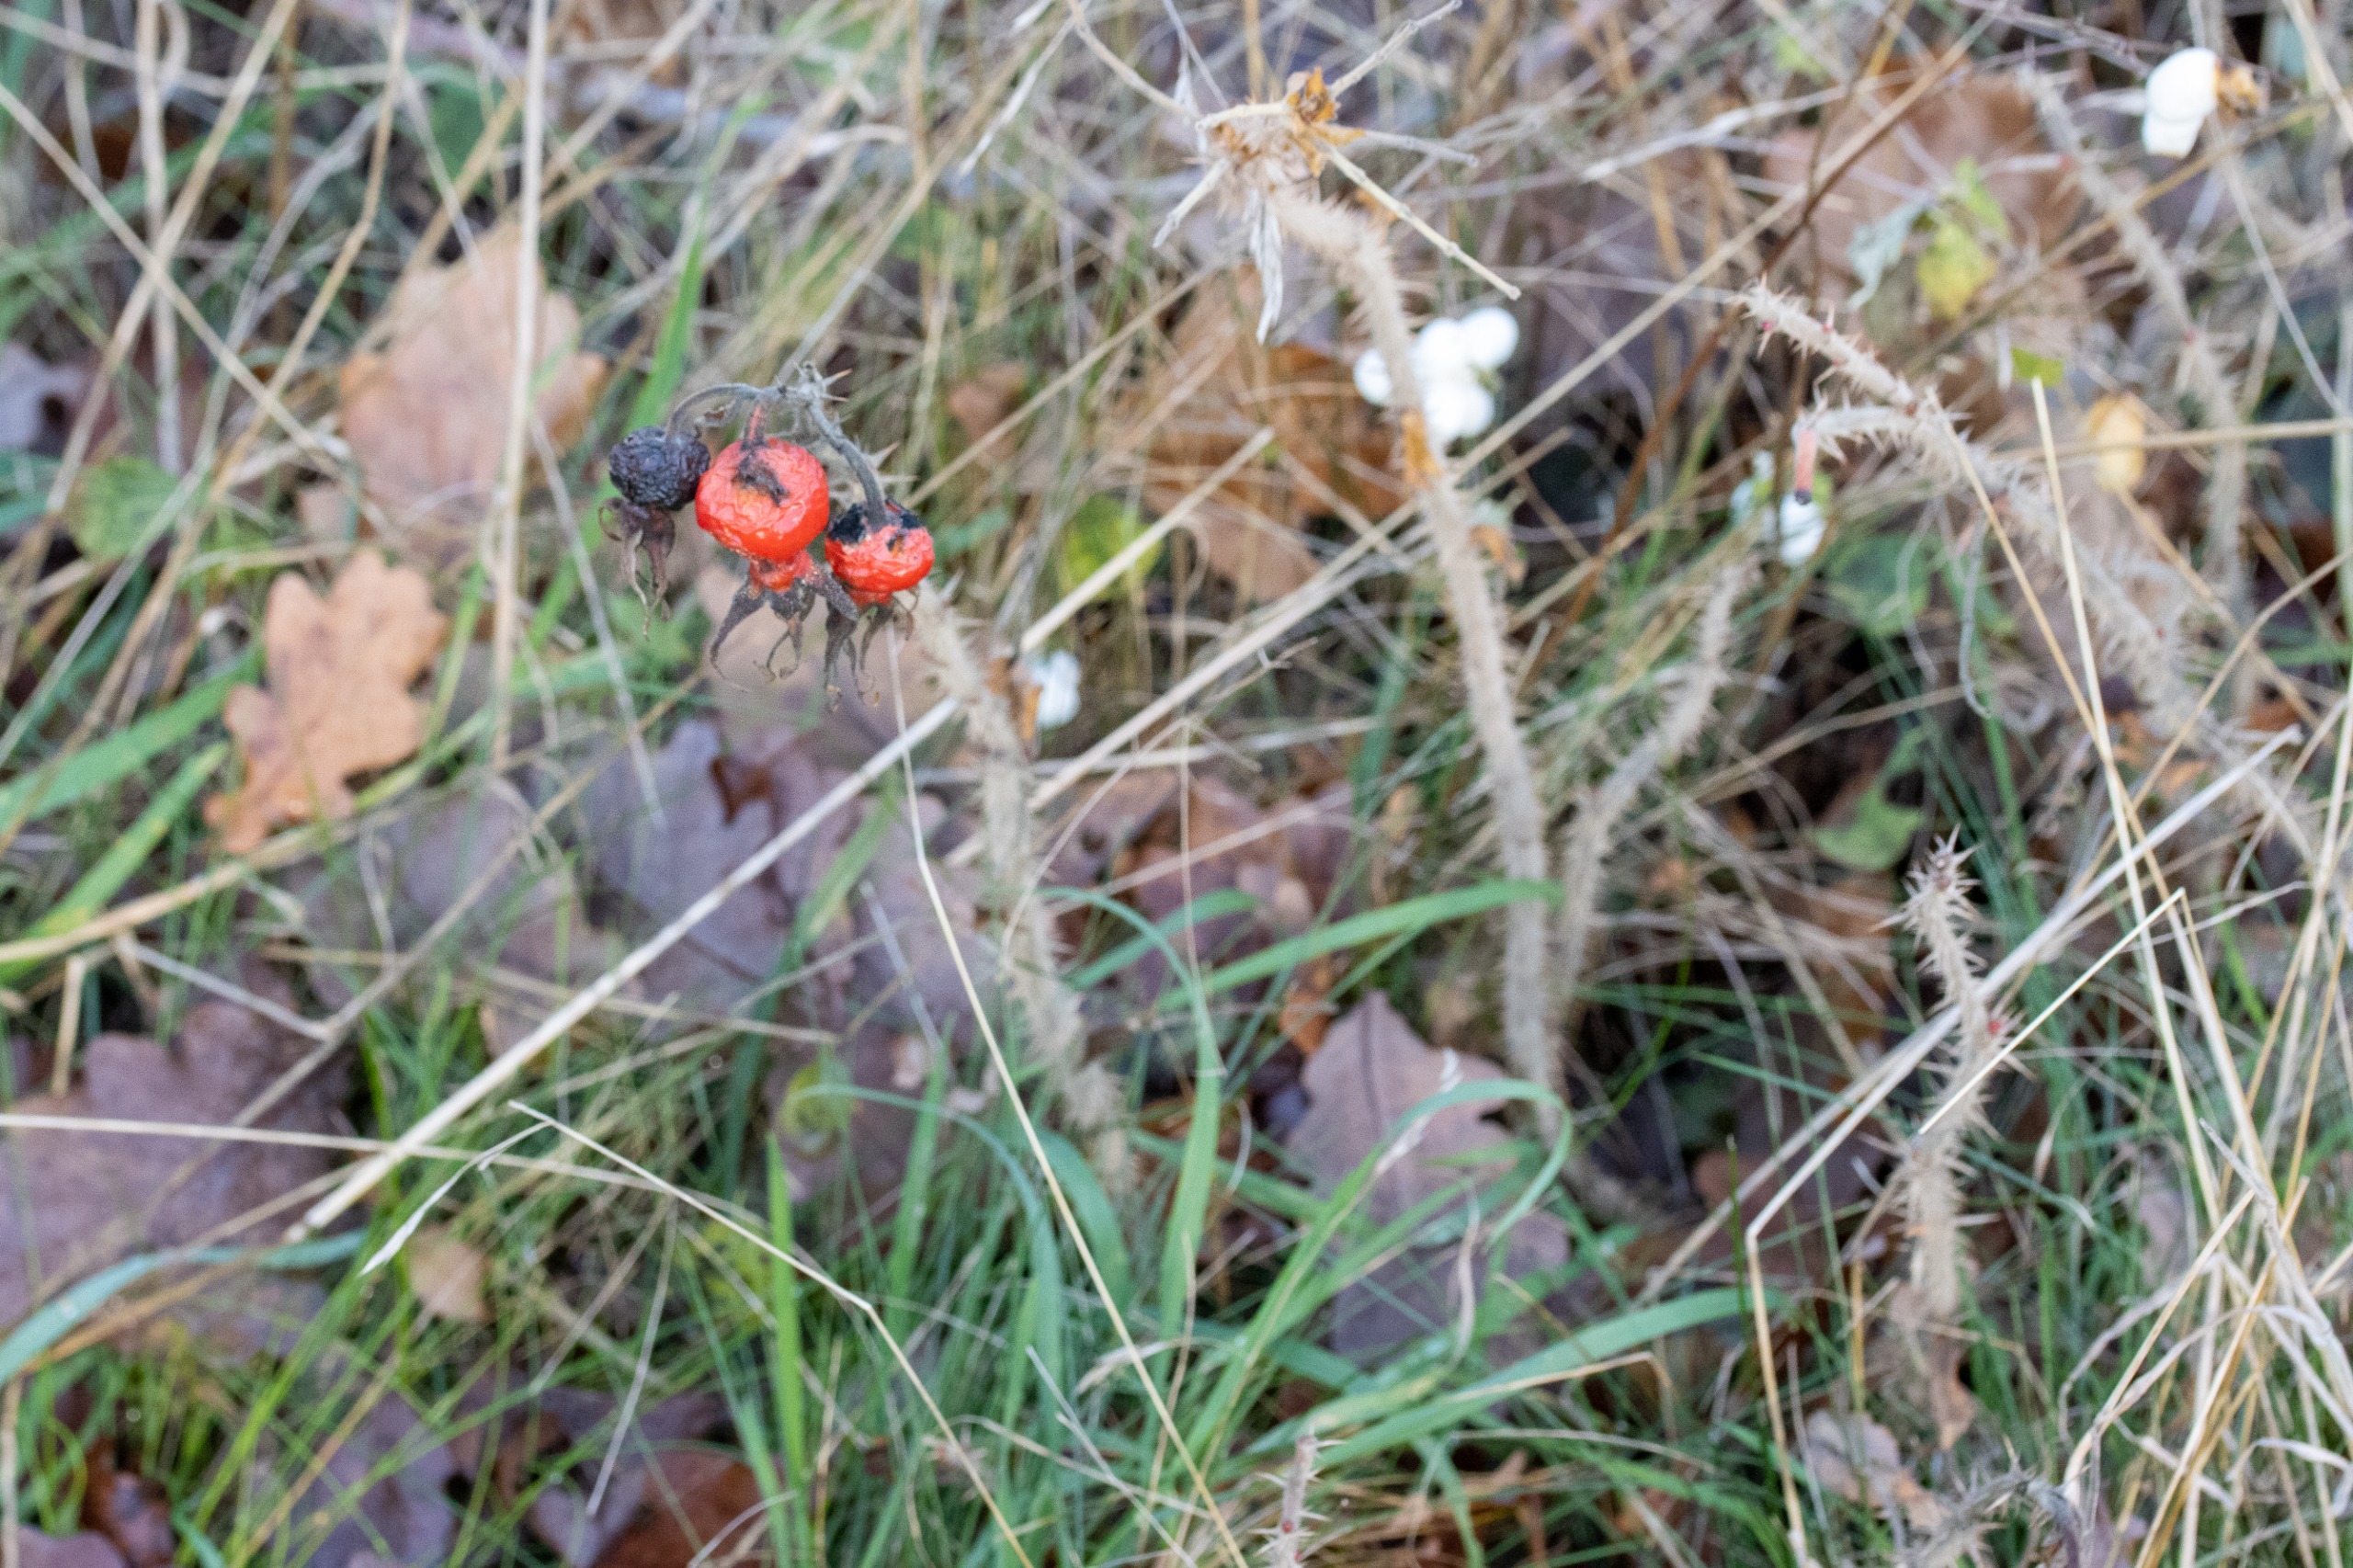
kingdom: Plantae
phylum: Tracheophyta
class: Magnoliopsida
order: Rosales
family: Rosaceae
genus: Rosa
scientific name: Rosa rugosa
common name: Rynket rose
